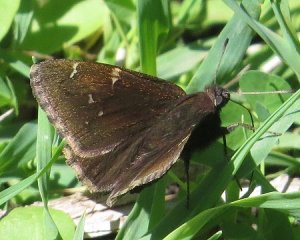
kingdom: Animalia
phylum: Arthropoda
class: Insecta
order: Lepidoptera
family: Hesperiidae
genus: Autochton
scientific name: Autochton
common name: Northern Cloudywing
